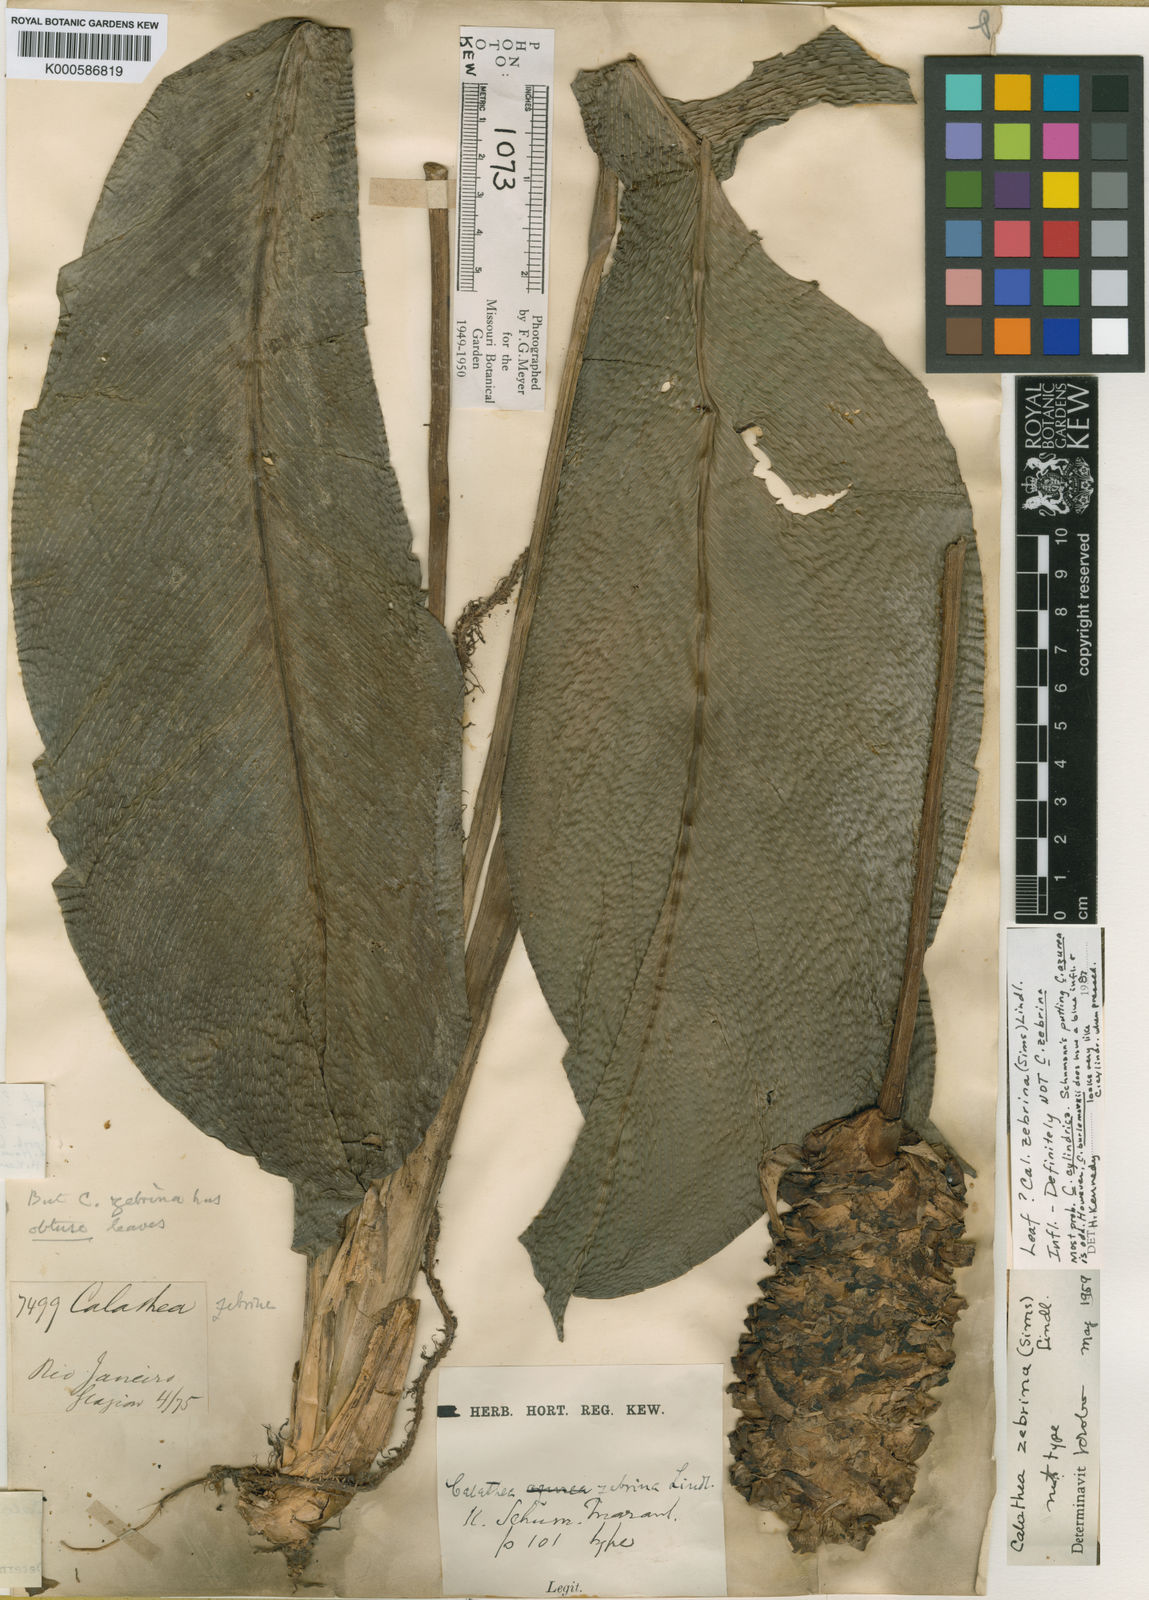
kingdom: Plantae
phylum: Tracheophyta
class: Liliopsida
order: Zingiberales
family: Marantaceae
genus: Goeppertia
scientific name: Goeppertia zebrina
